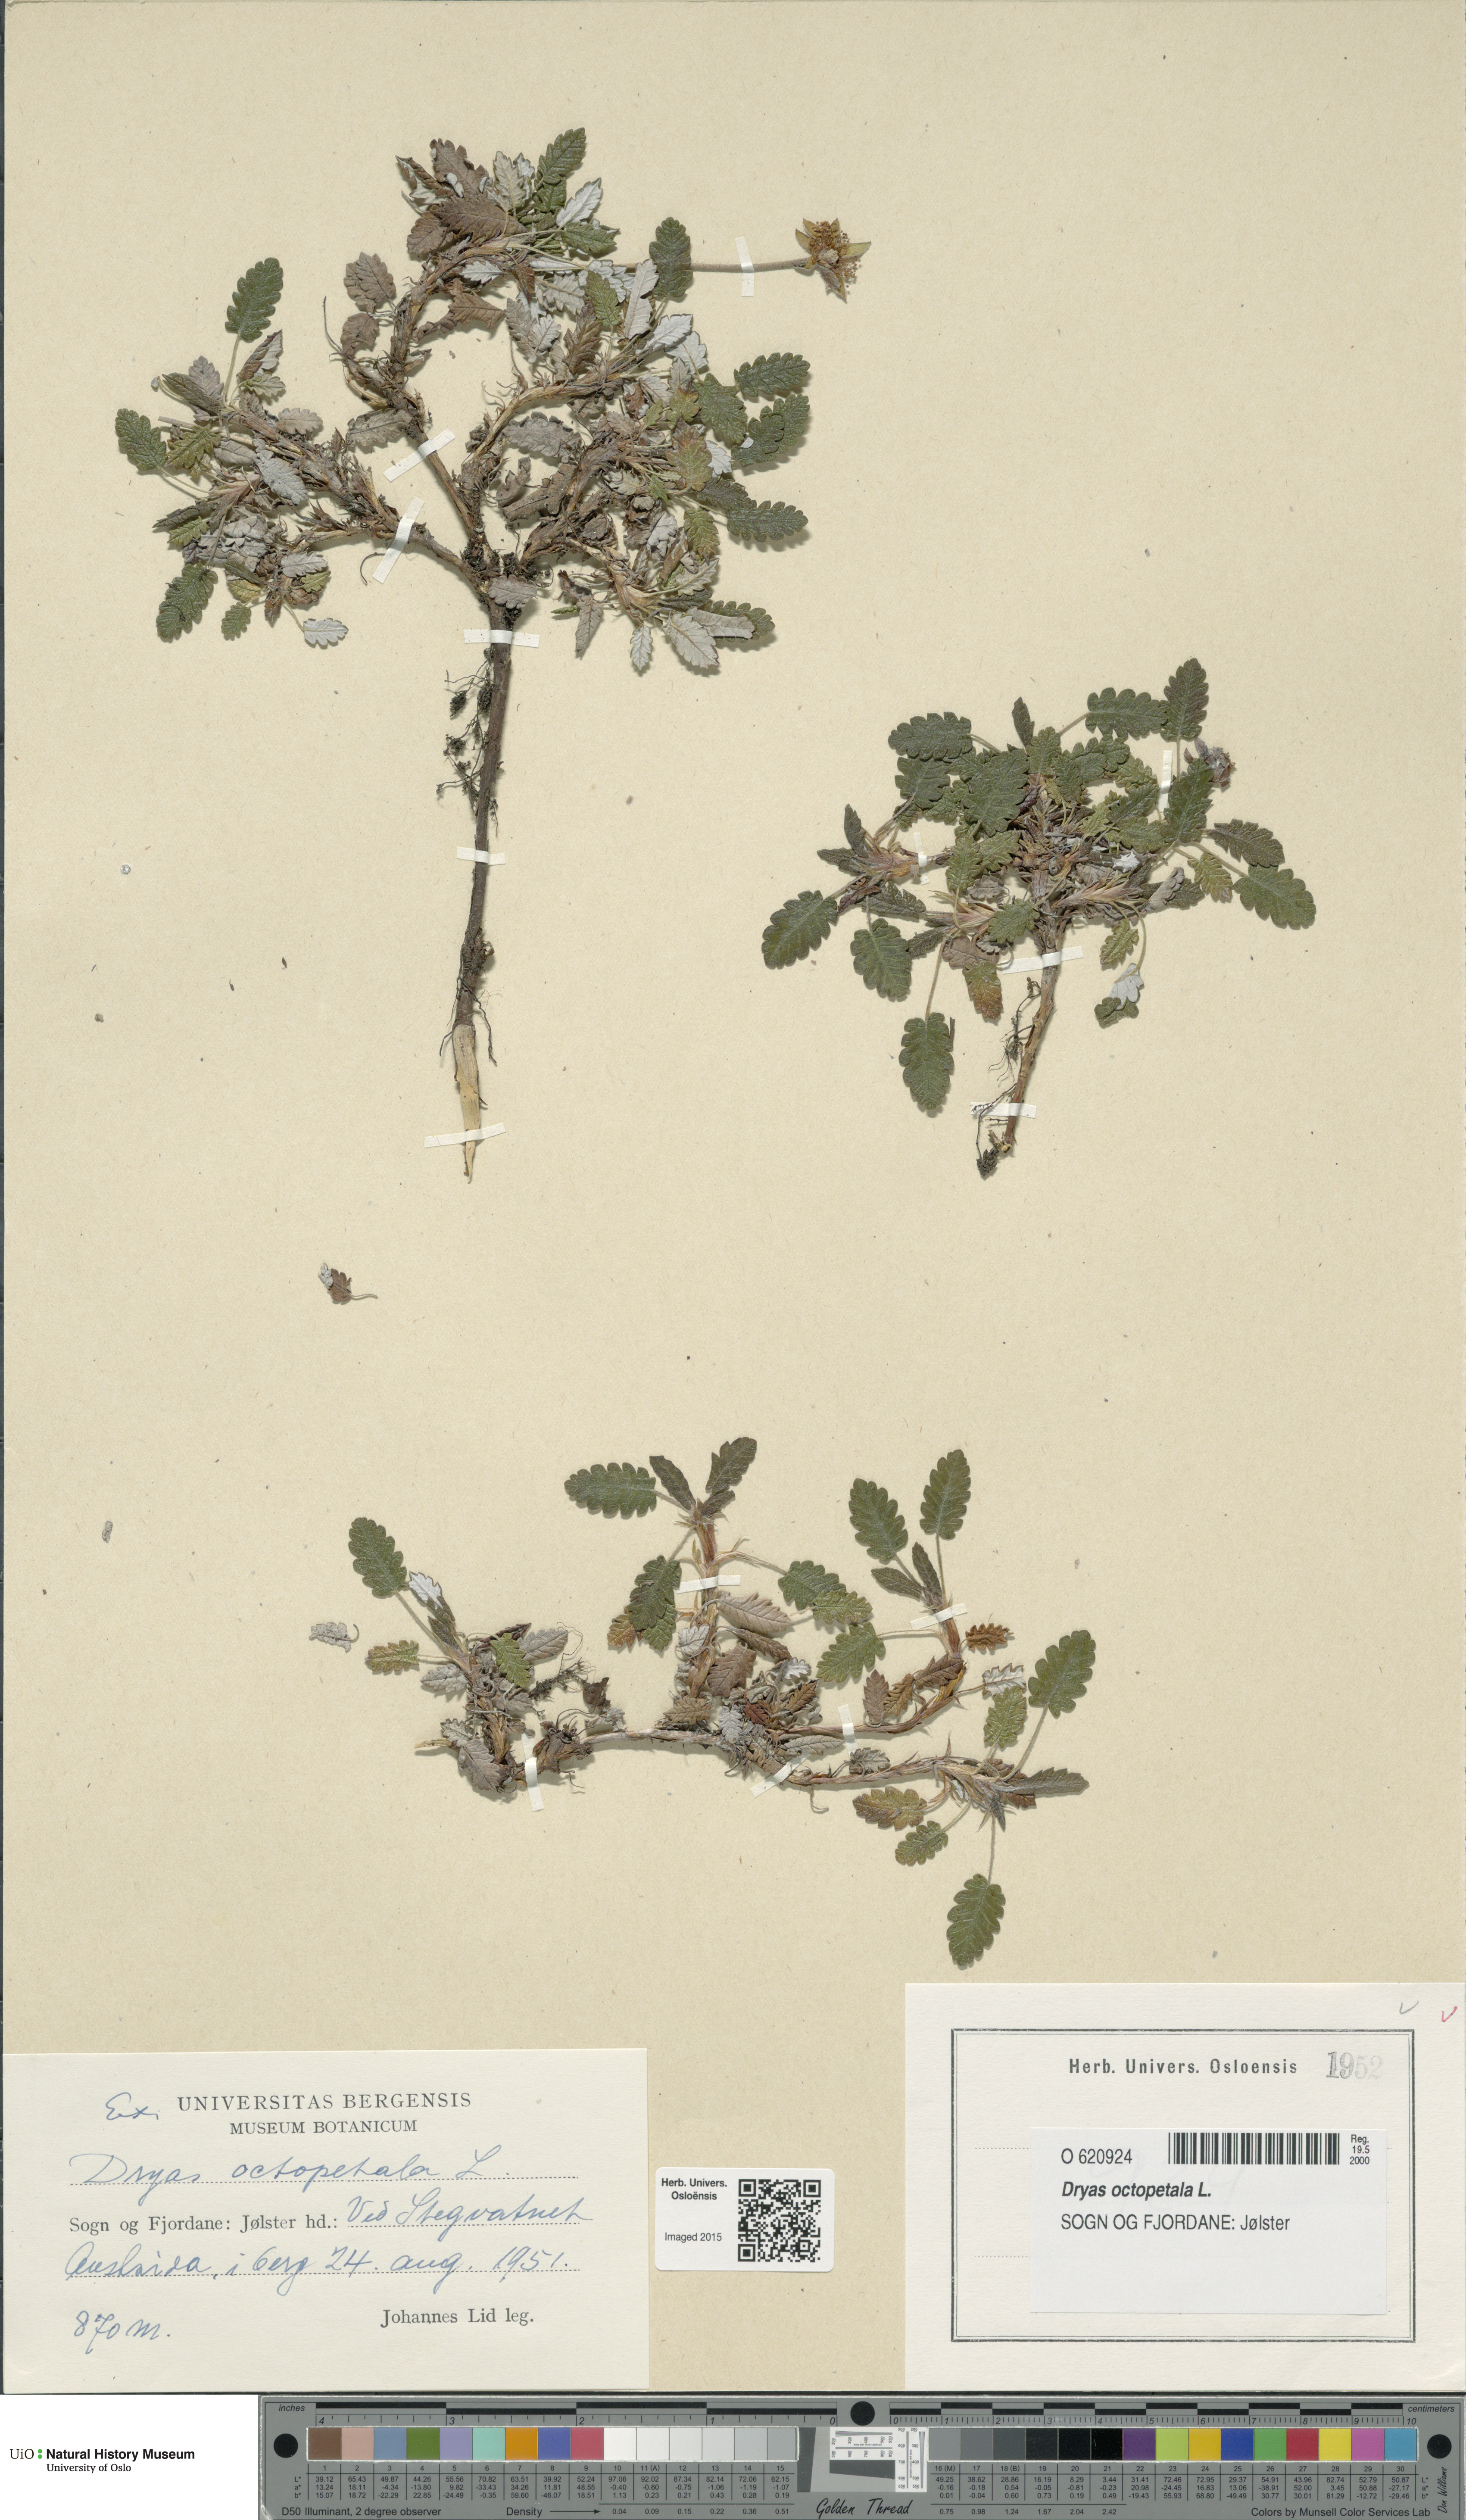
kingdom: Plantae
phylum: Tracheophyta
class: Magnoliopsida
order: Rosales
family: Rosaceae
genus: Dryas
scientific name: Dryas octopetala
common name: Eight-petal mountain-avens
